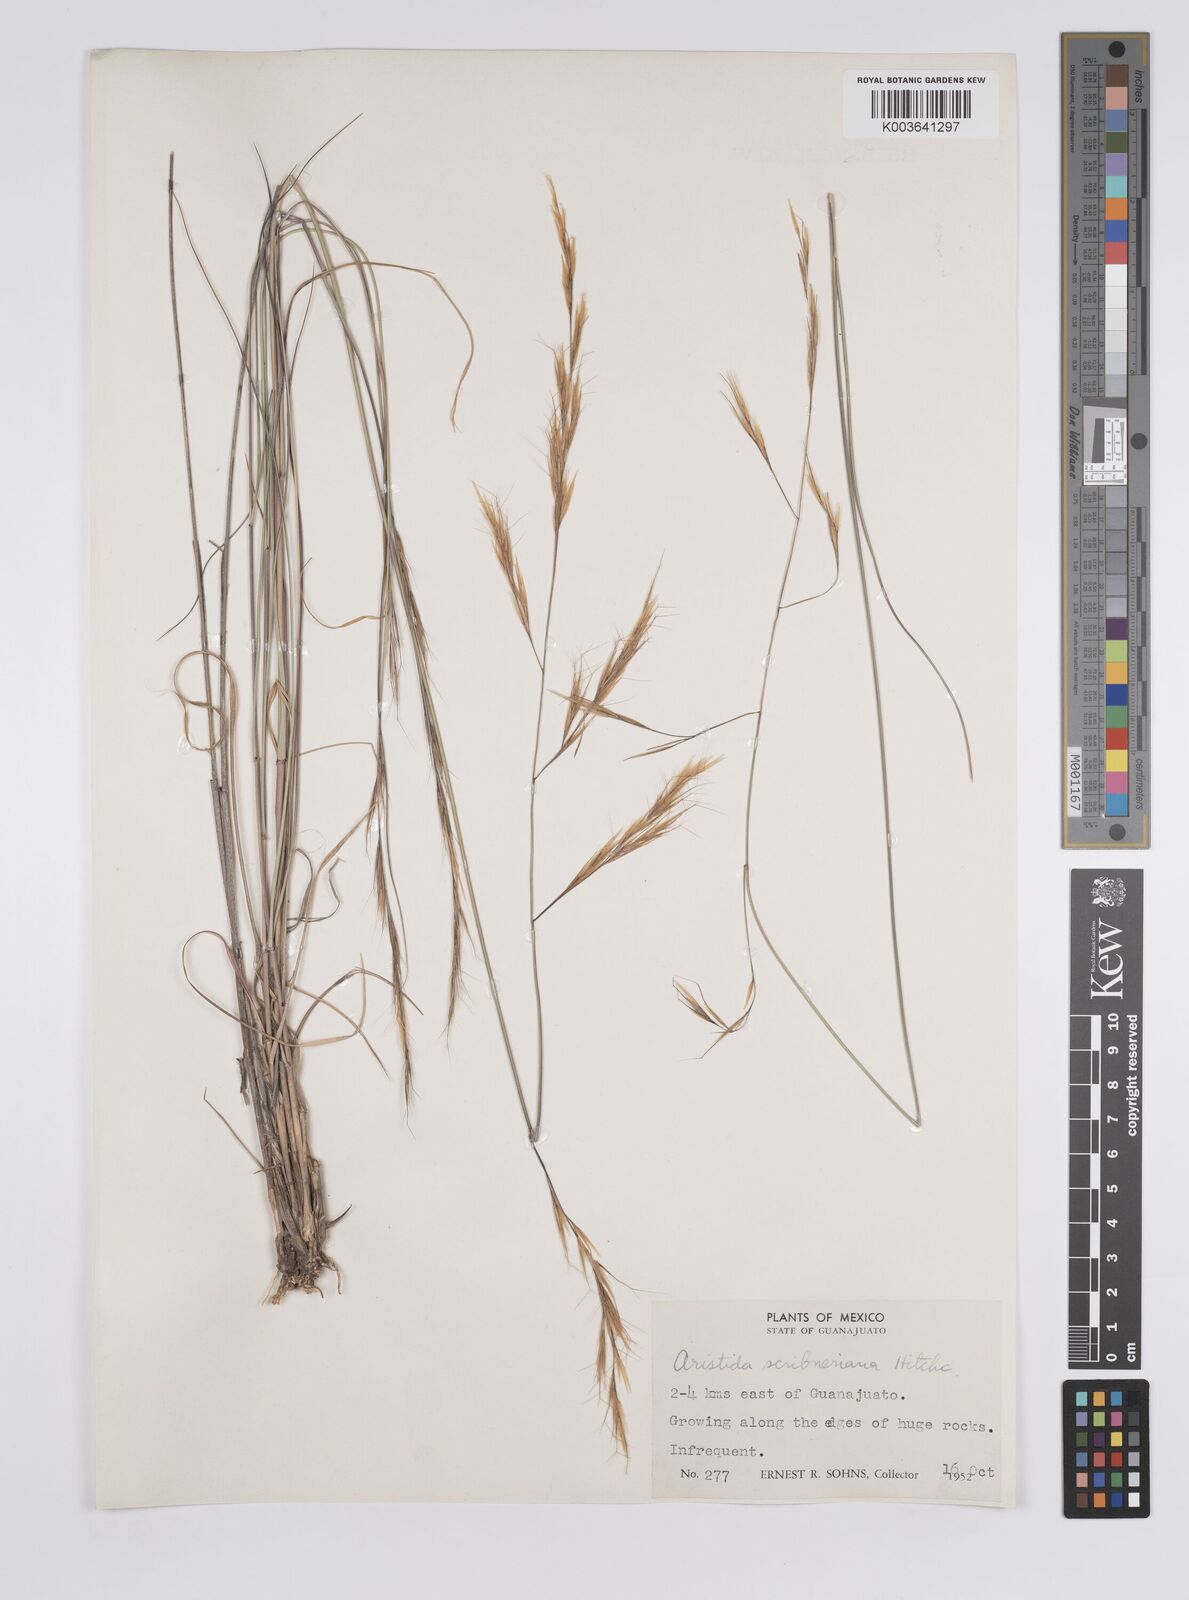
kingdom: Plantae
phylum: Tracheophyta
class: Liliopsida
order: Poales
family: Poaceae
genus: Aristida
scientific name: Aristida scribneriana
